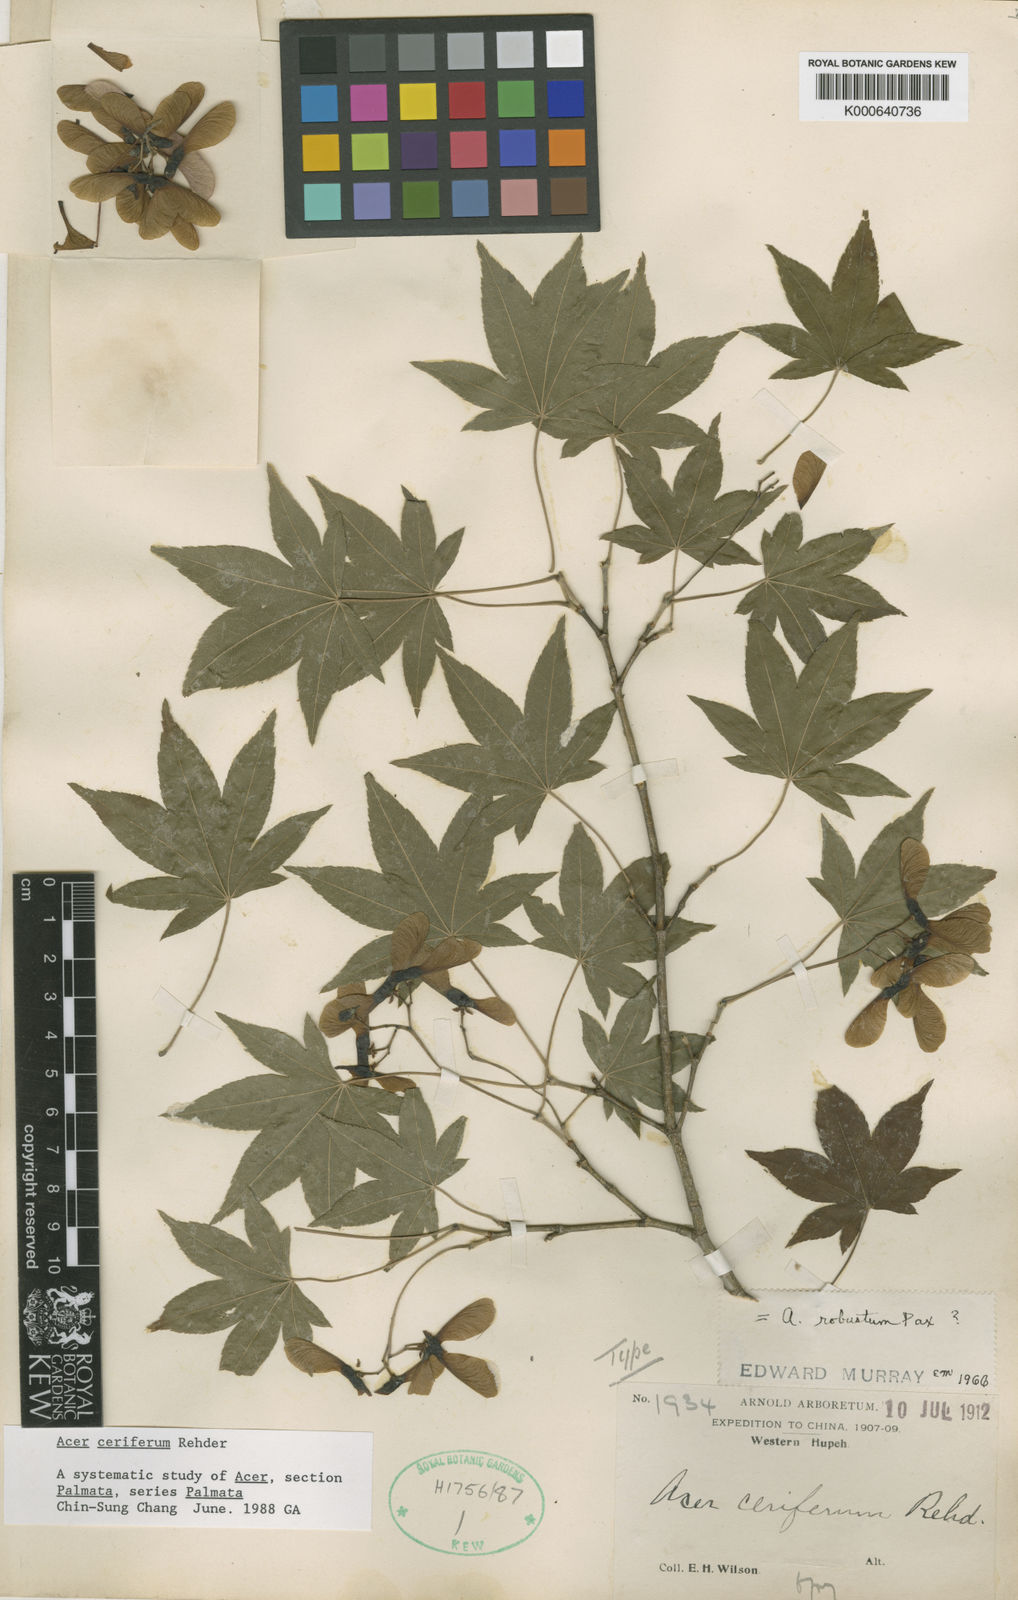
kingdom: Plantae
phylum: Tracheophyta
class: Magnoliopsida
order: Sapindales
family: Sapindaceae
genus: Acer
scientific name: Acer duplicatoserratum
